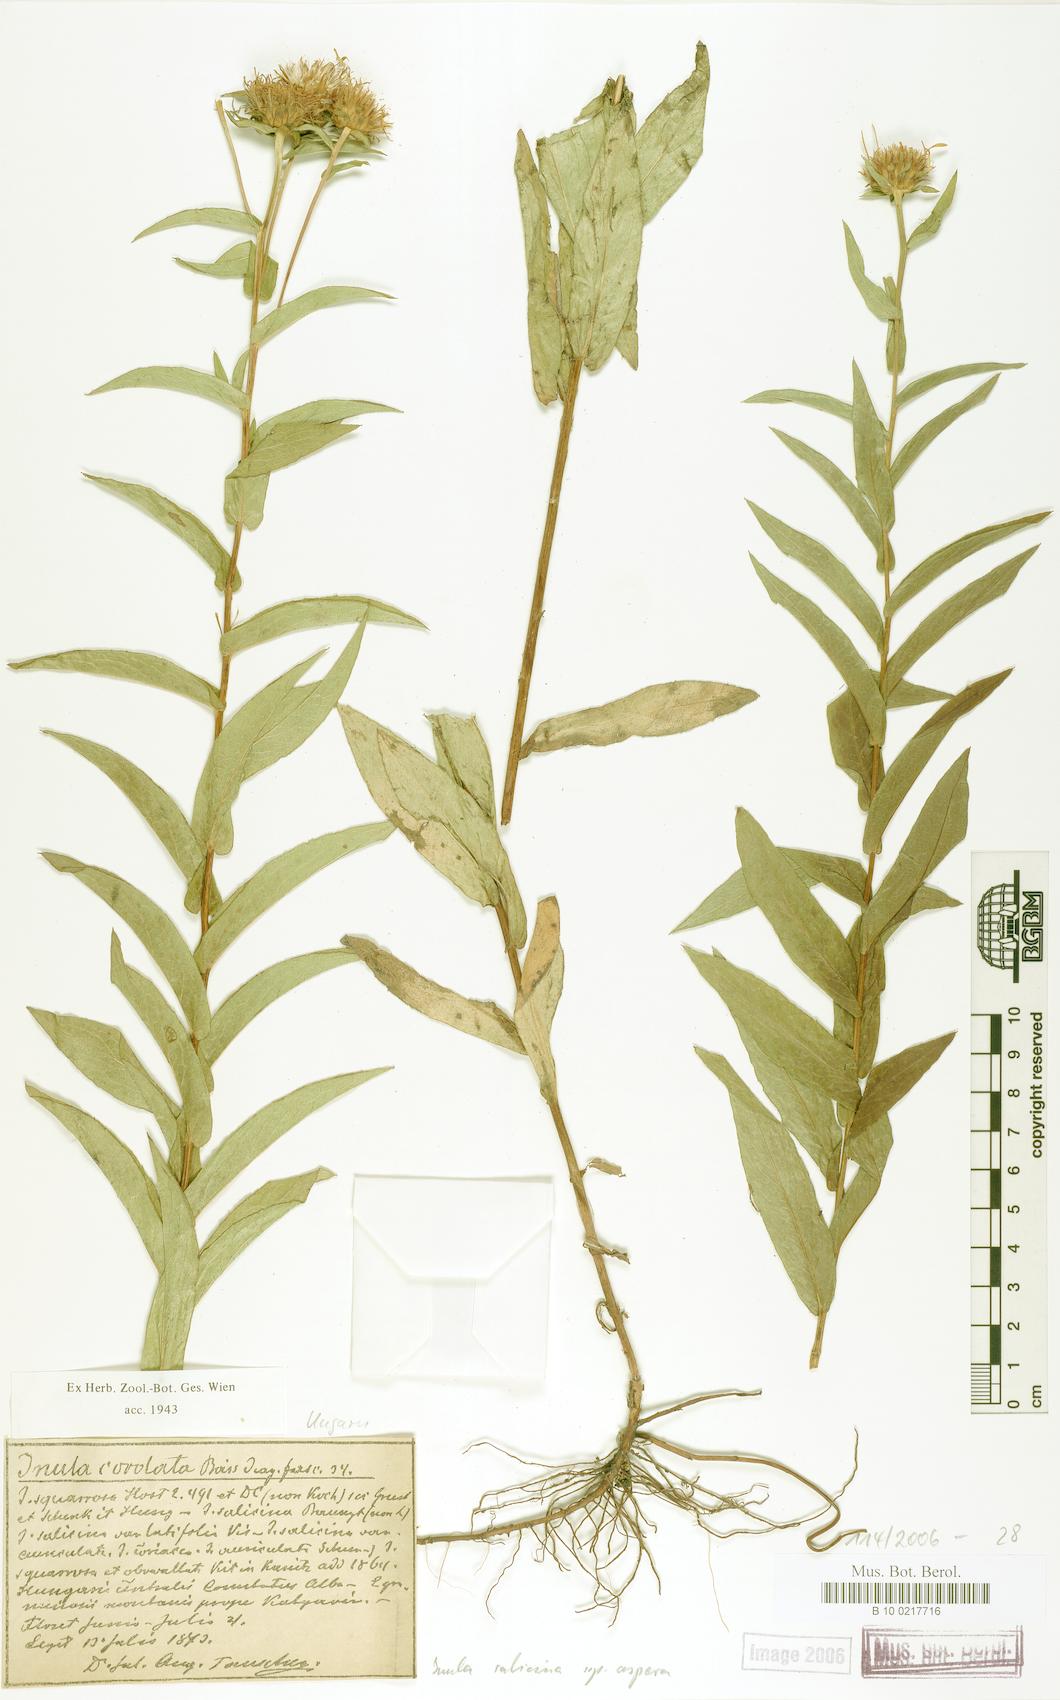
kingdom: Plantae
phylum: Tracheophyta
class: Magnoliopsida
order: Asterales
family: Asteraceae
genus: Pentanema
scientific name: Pentanema salicinum
